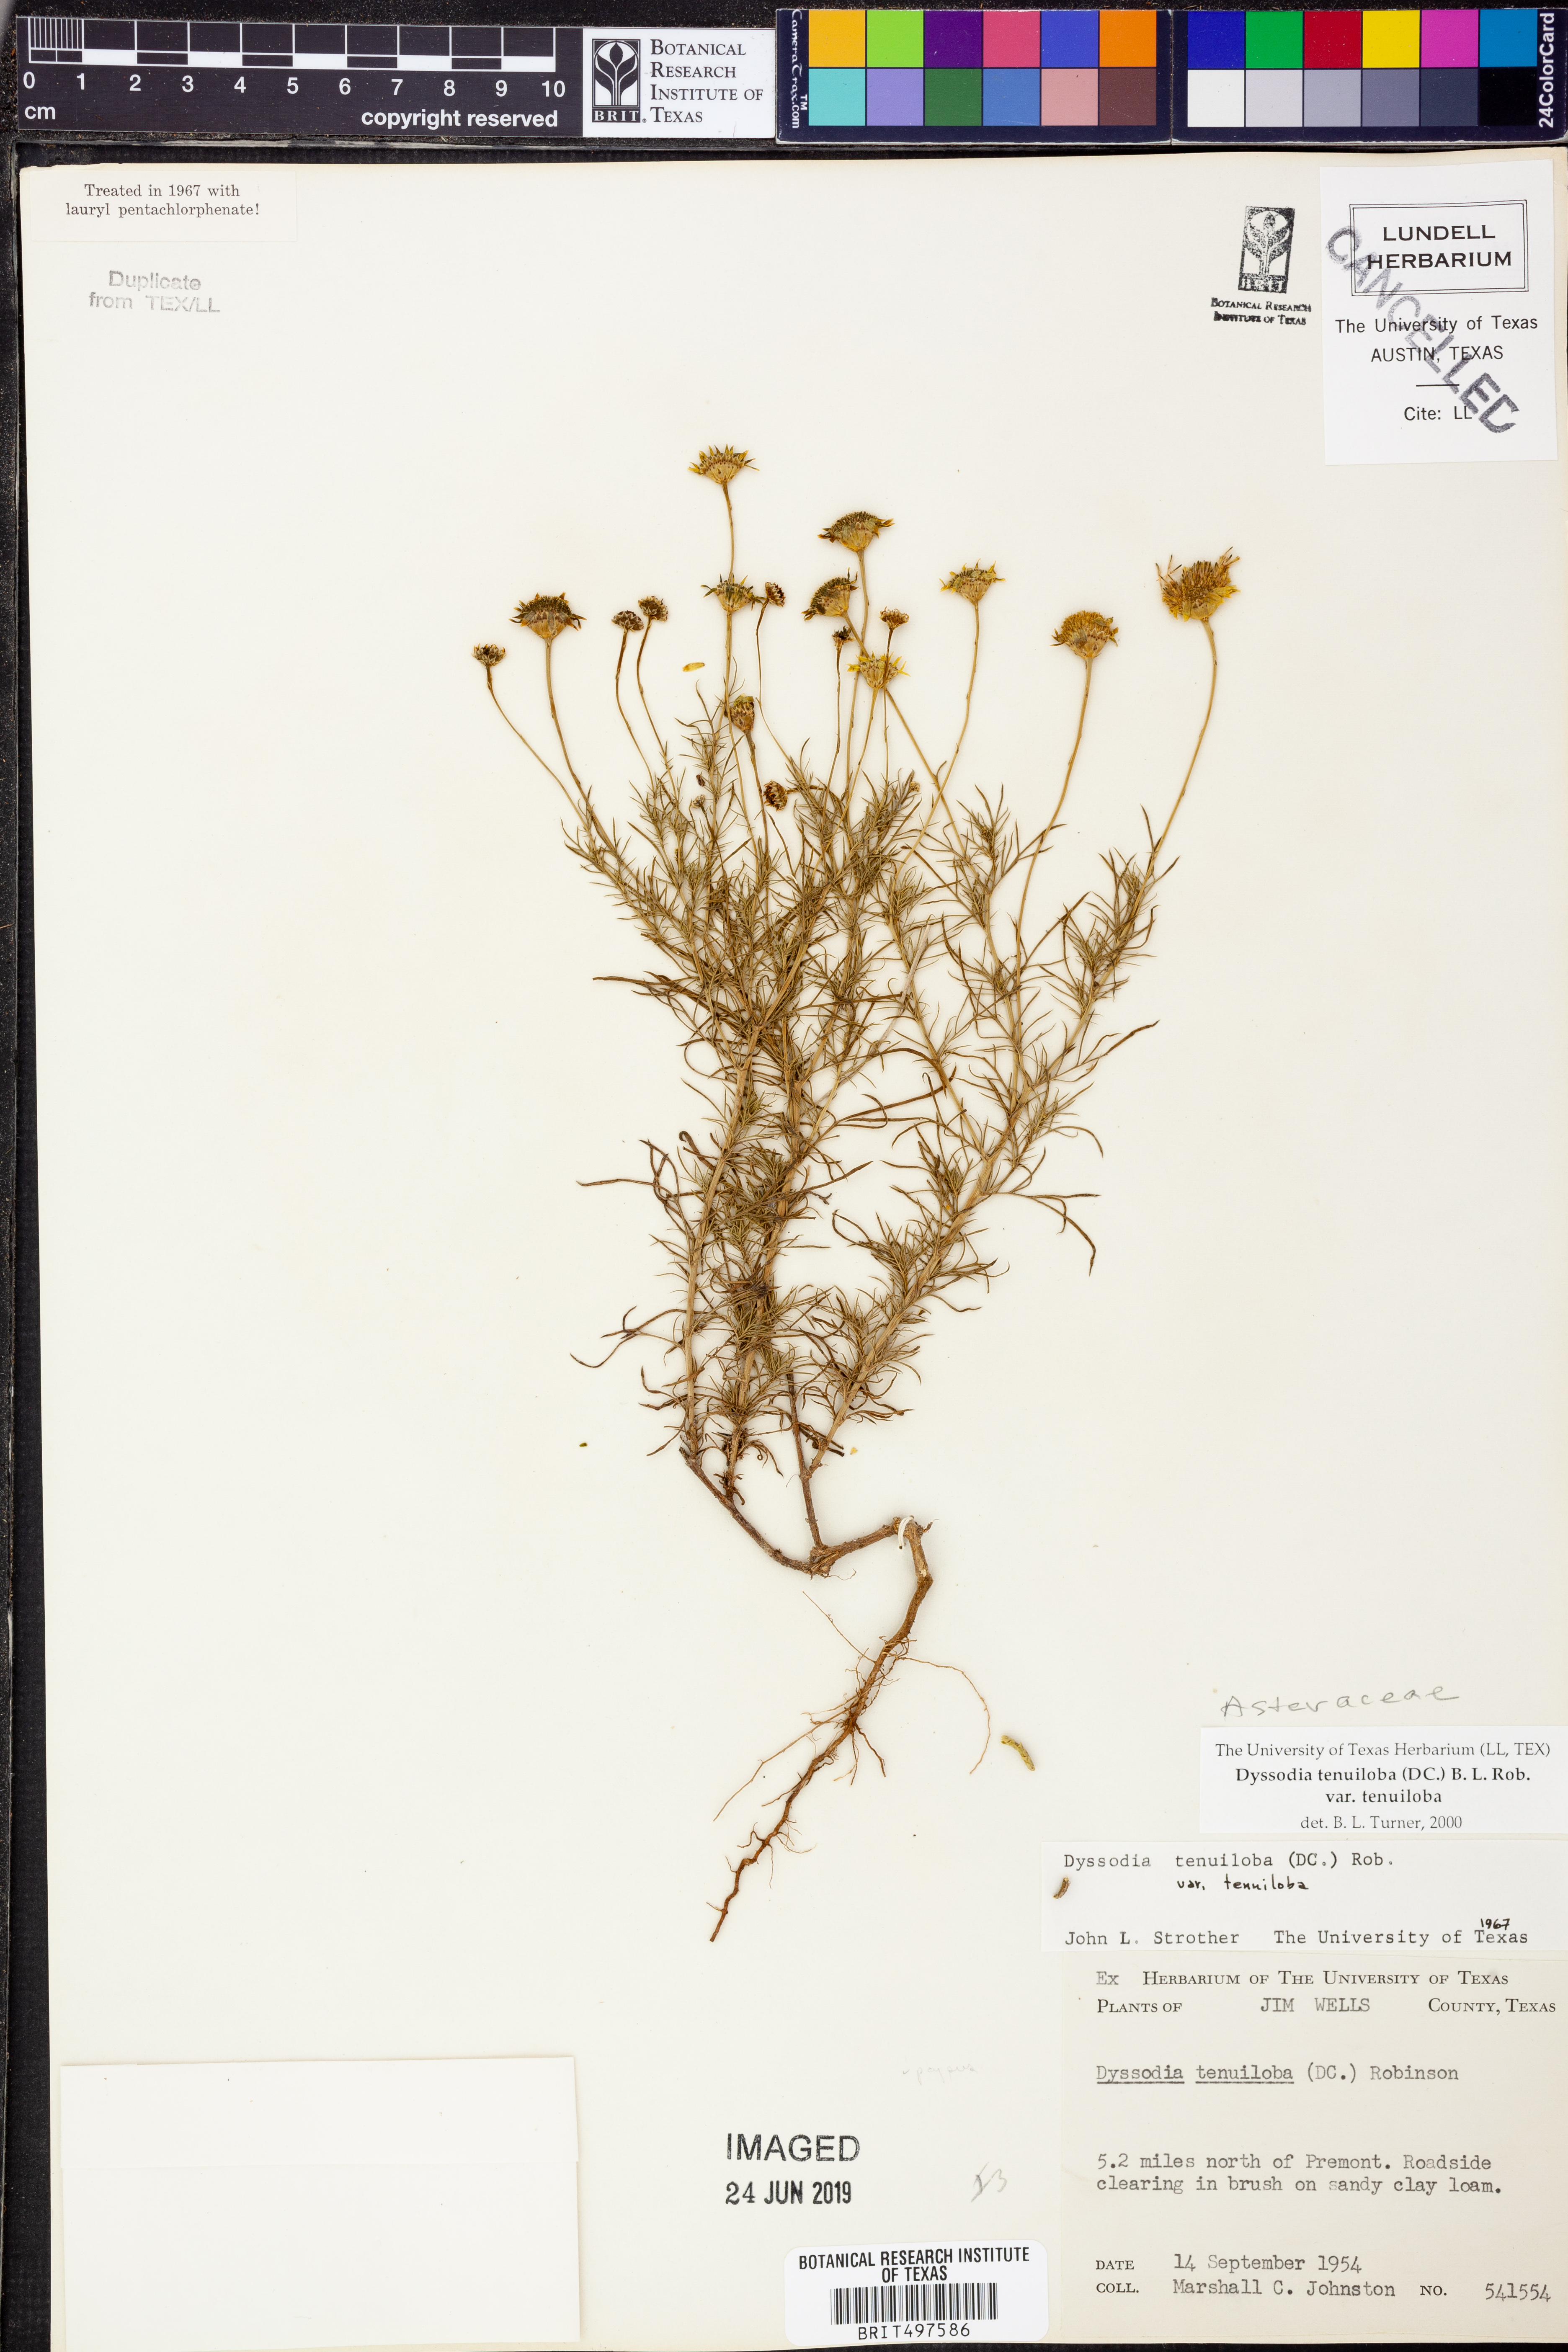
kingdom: Plantae
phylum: Tracheophyta
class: Magnoliopsida
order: Asterales
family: Asteraceae
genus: Thymophylla
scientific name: Thymophylla tenuiloba
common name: Dahlberg's daisy
